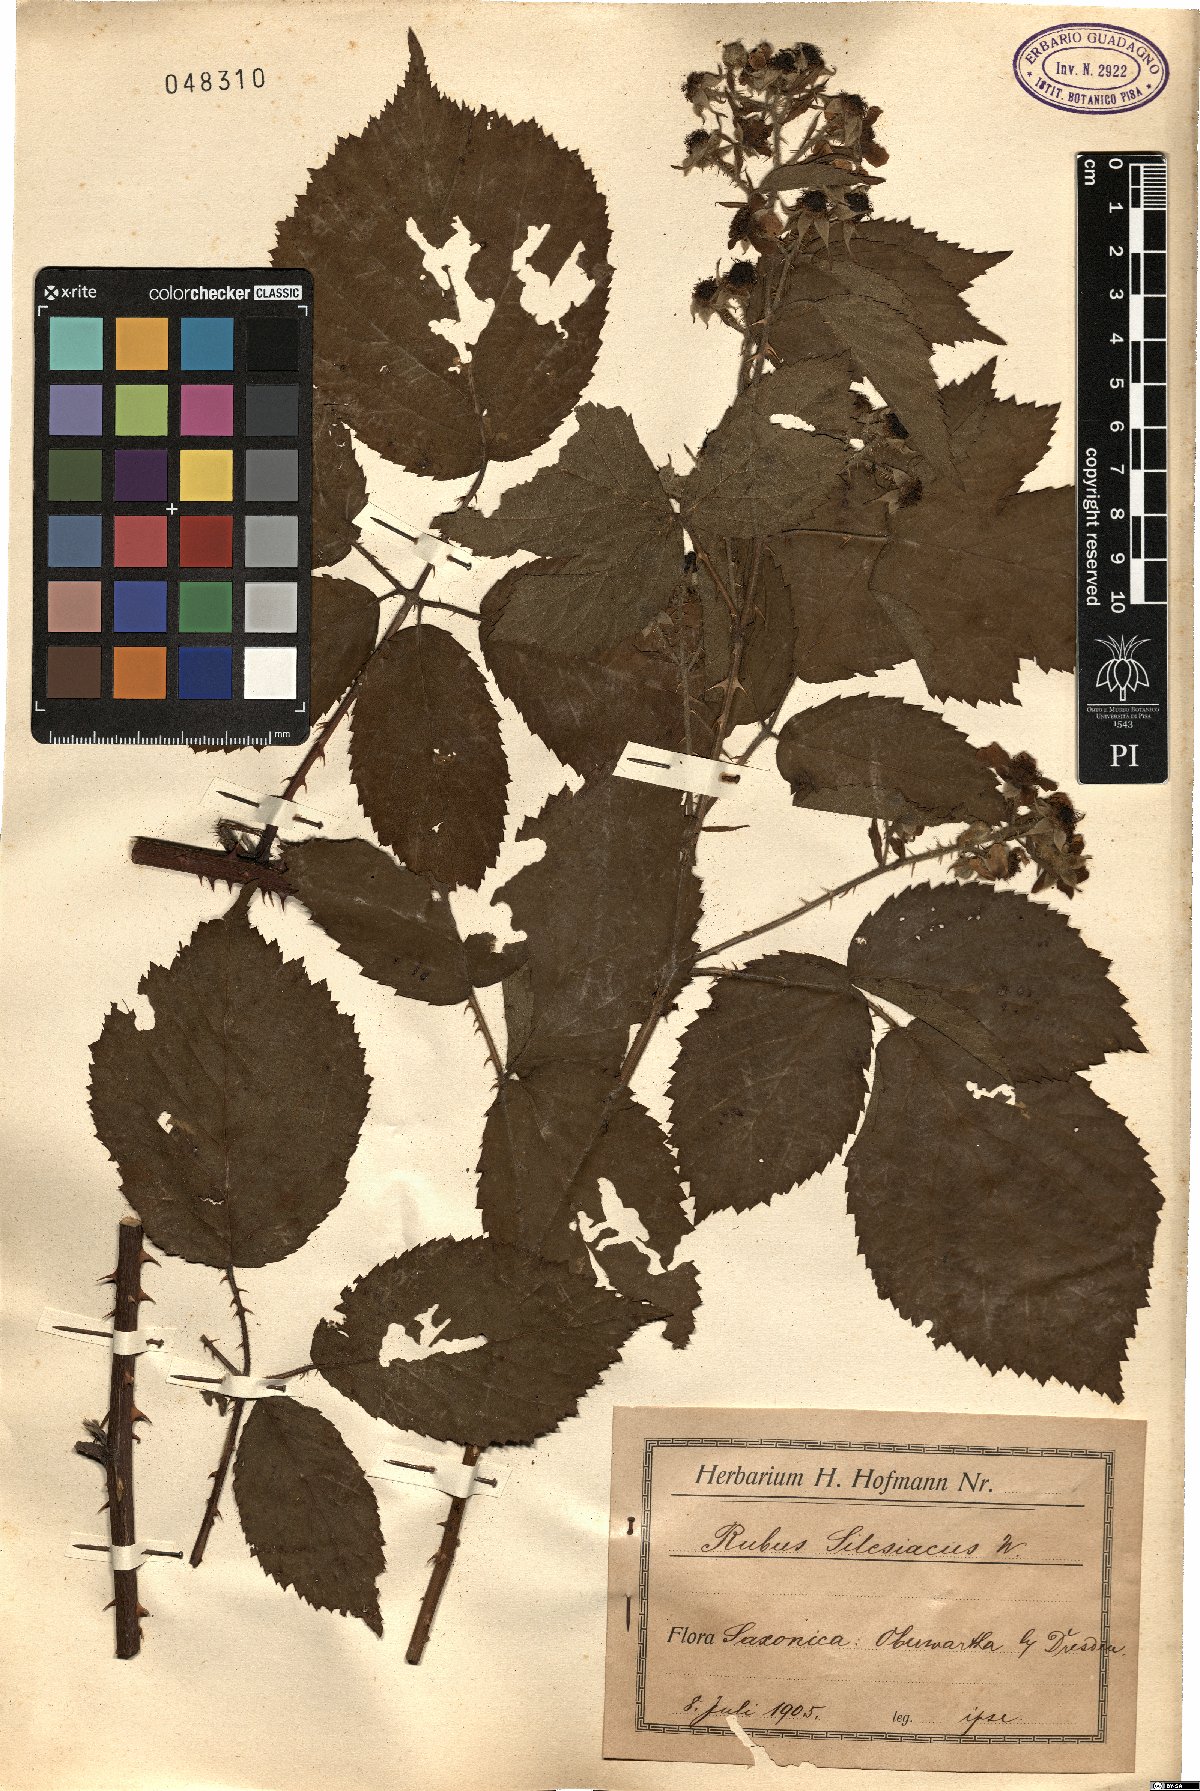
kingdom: Plantae
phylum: Tracheophyta
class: Magnoliopsida
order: Rosales
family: Rosaceae
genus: Rubus
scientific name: Rubus silesiacus
